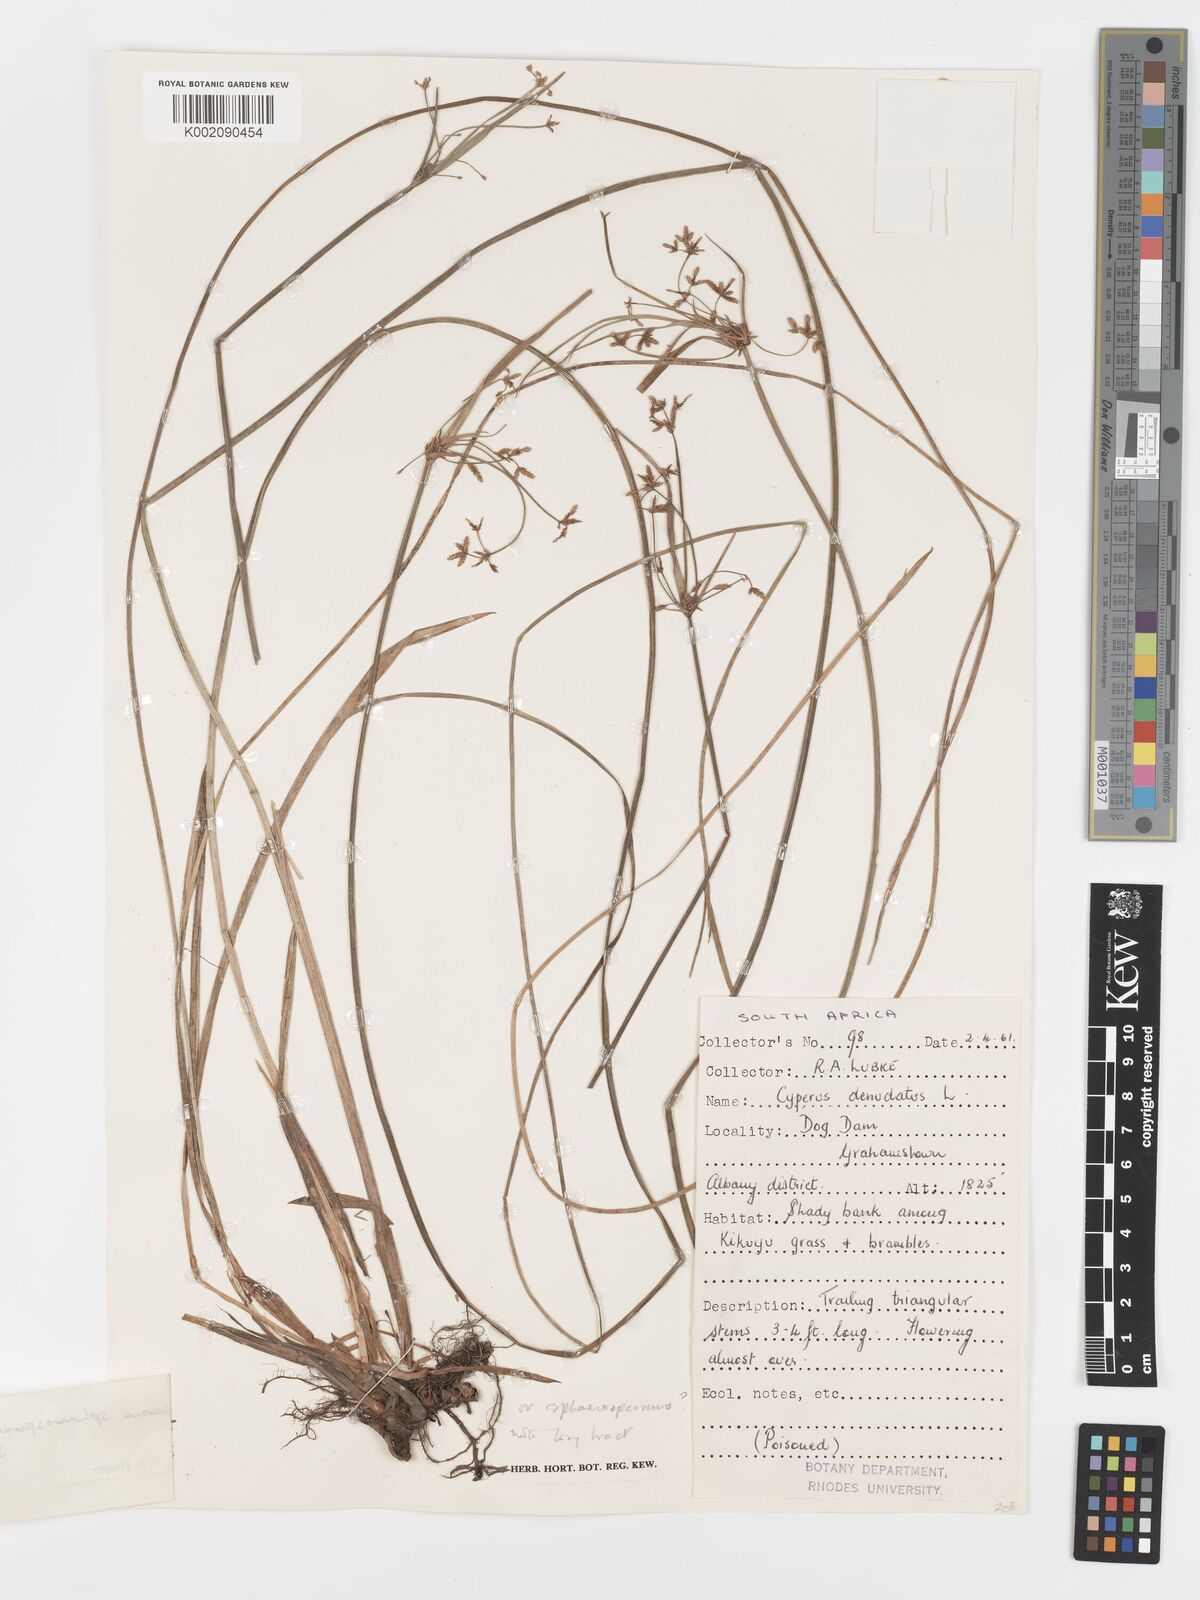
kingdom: Plantae
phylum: Tracheophyta
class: Liliopsida
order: Poales
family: Cyperaceae
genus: Cyperus
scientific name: Cyperus sphaerospermus
